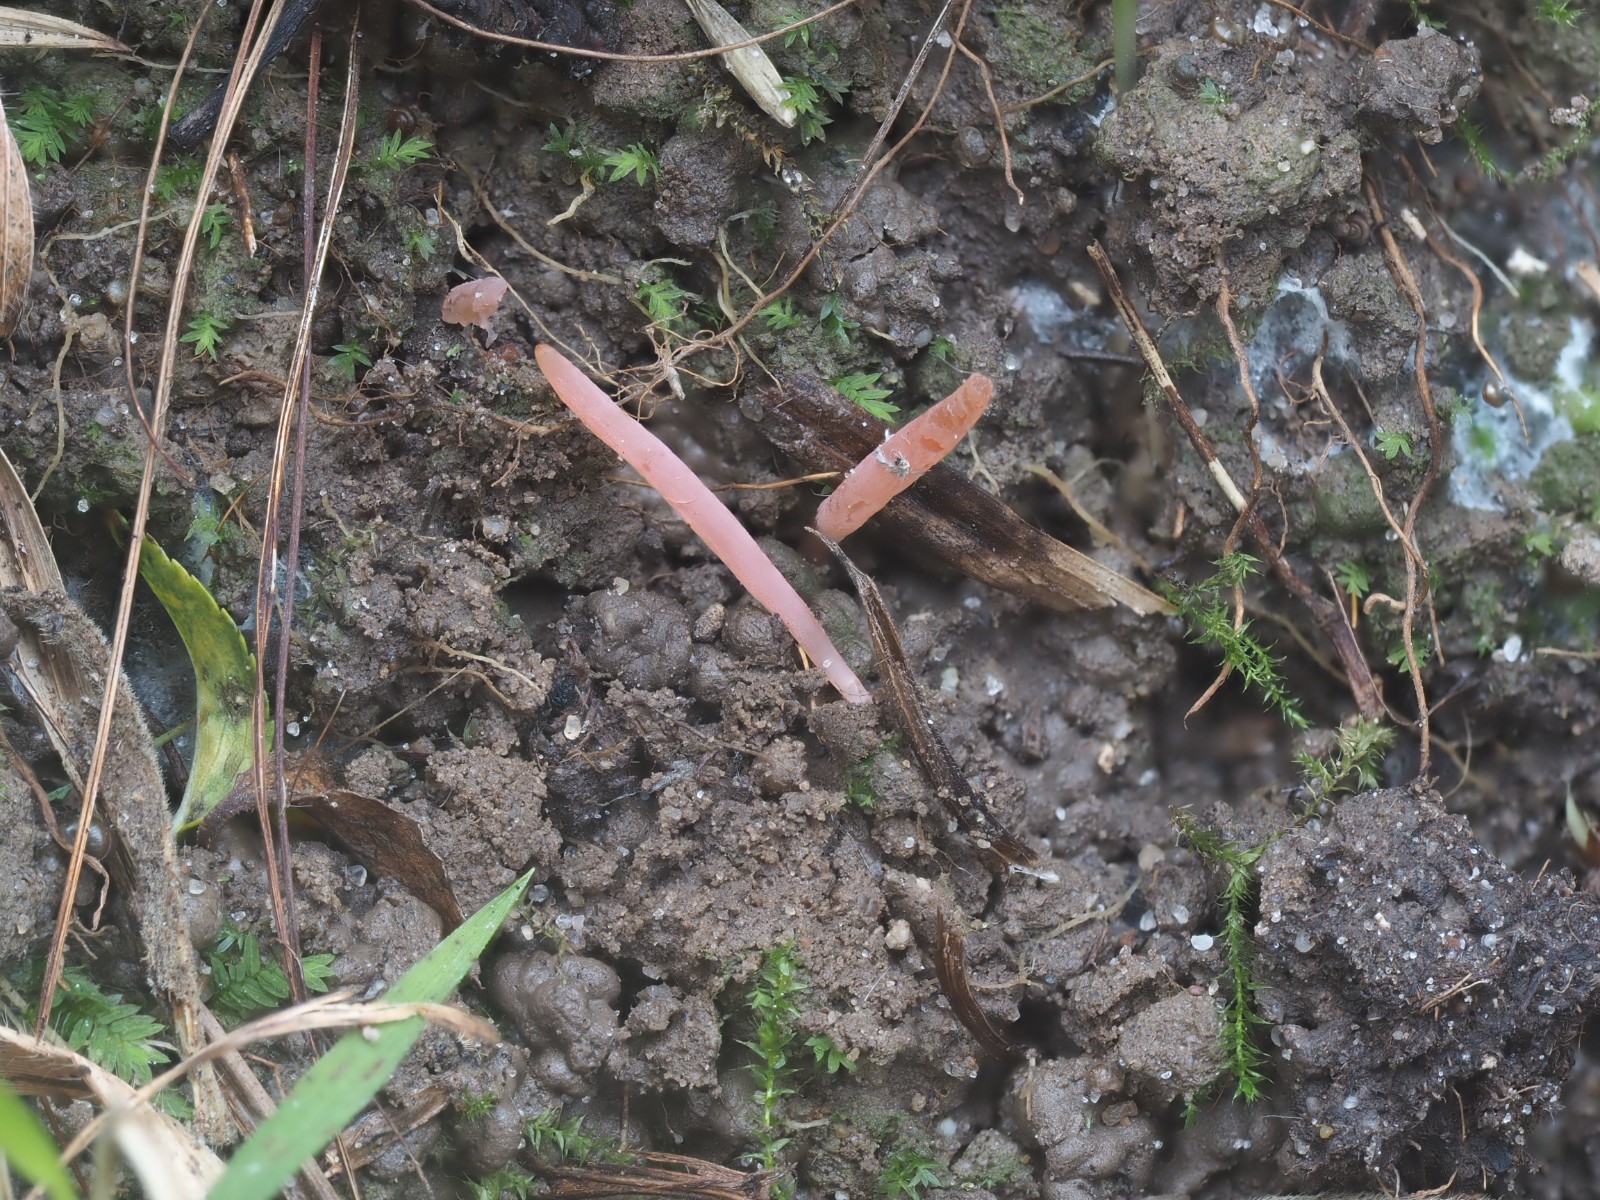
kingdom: Fungi
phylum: Basidiomycota
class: Agaricomycetes
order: Agaricales
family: Clavariaceae
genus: Clavaria
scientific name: Clavaria incarnata
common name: kødrød køllesvamp
